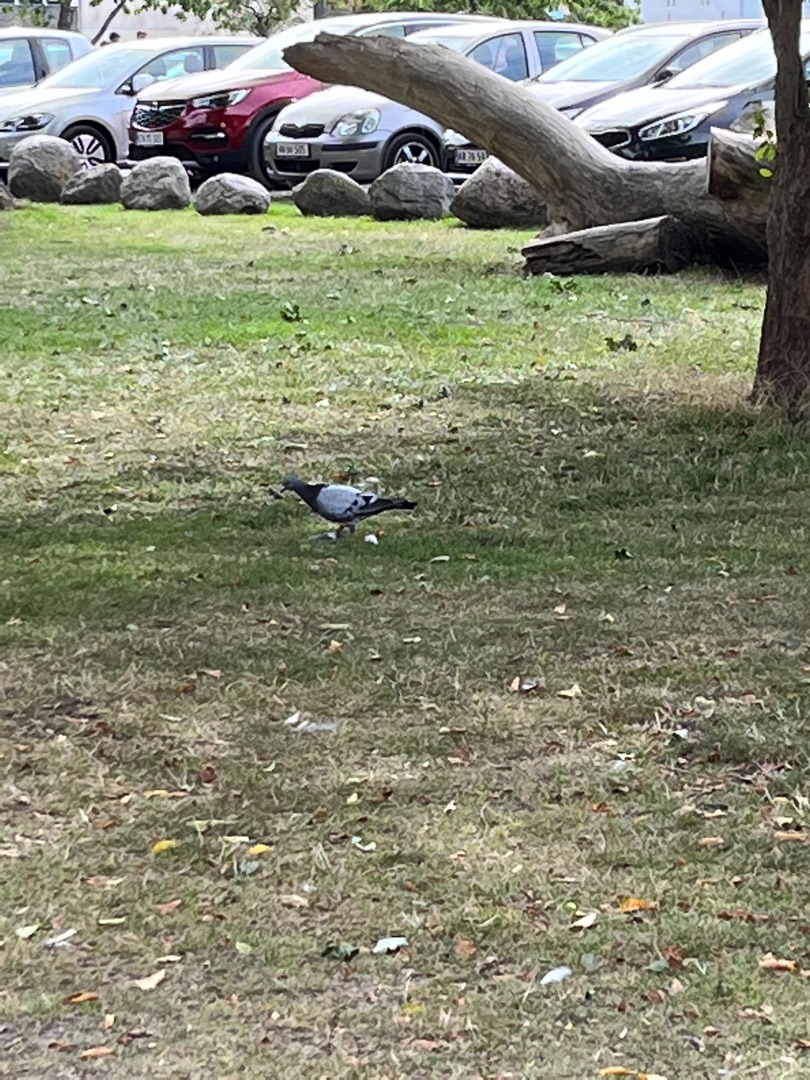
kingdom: Animalia
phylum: Chordata
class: Aves
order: Columbiformes
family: Columbidae
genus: Columba
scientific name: Columba livia
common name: Tamdue
